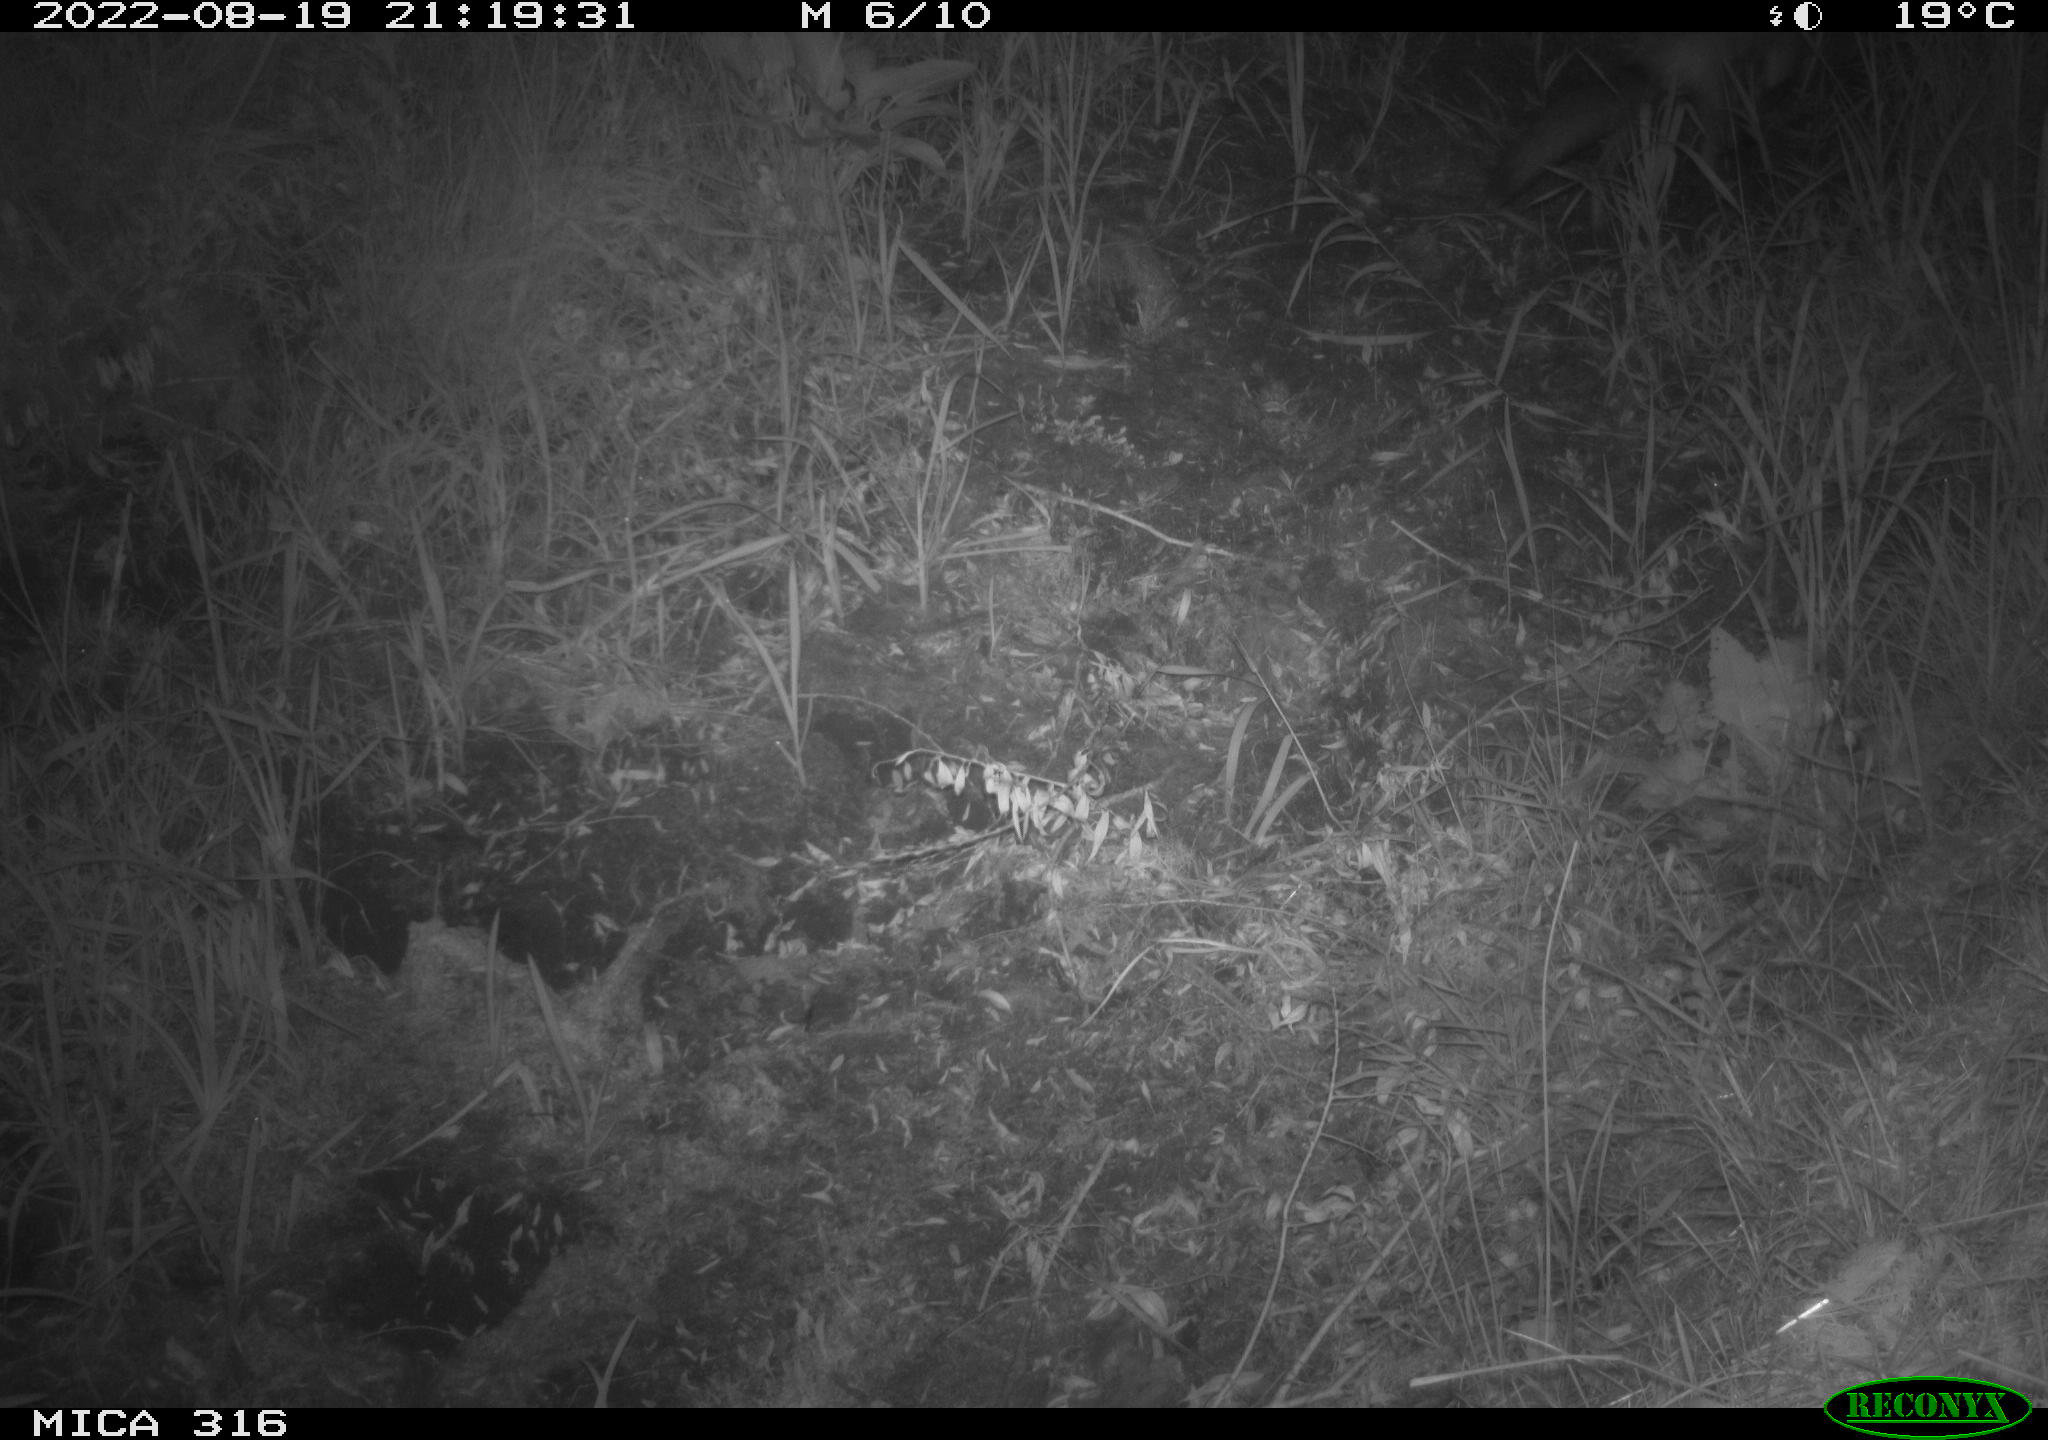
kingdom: Animalia
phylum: Chordata
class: Mammalia
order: Carnivora
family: Canidae
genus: Vulpes
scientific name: Vulpes vulpes
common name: Red fox
